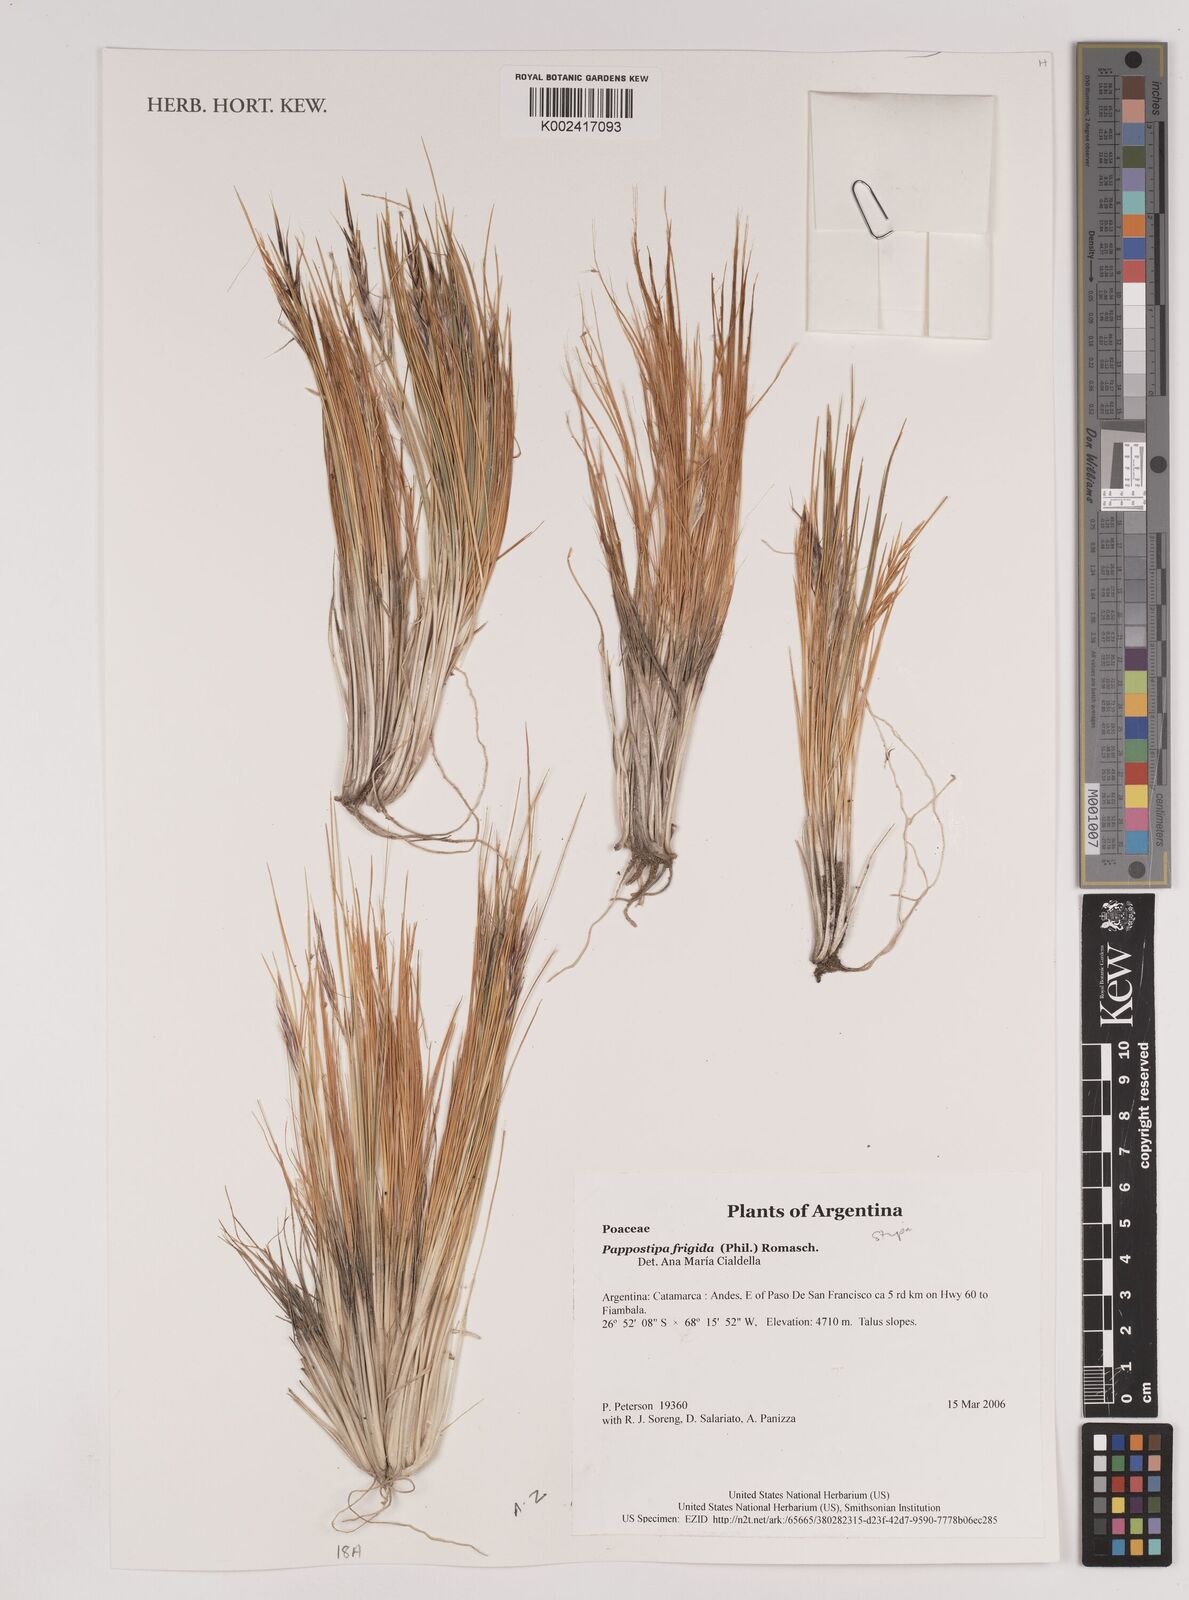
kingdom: Plantae
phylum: Tracheophyta
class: Liliopsida
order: Poales
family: Poaceae
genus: Pappostipa
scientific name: Pappostipa frigida
